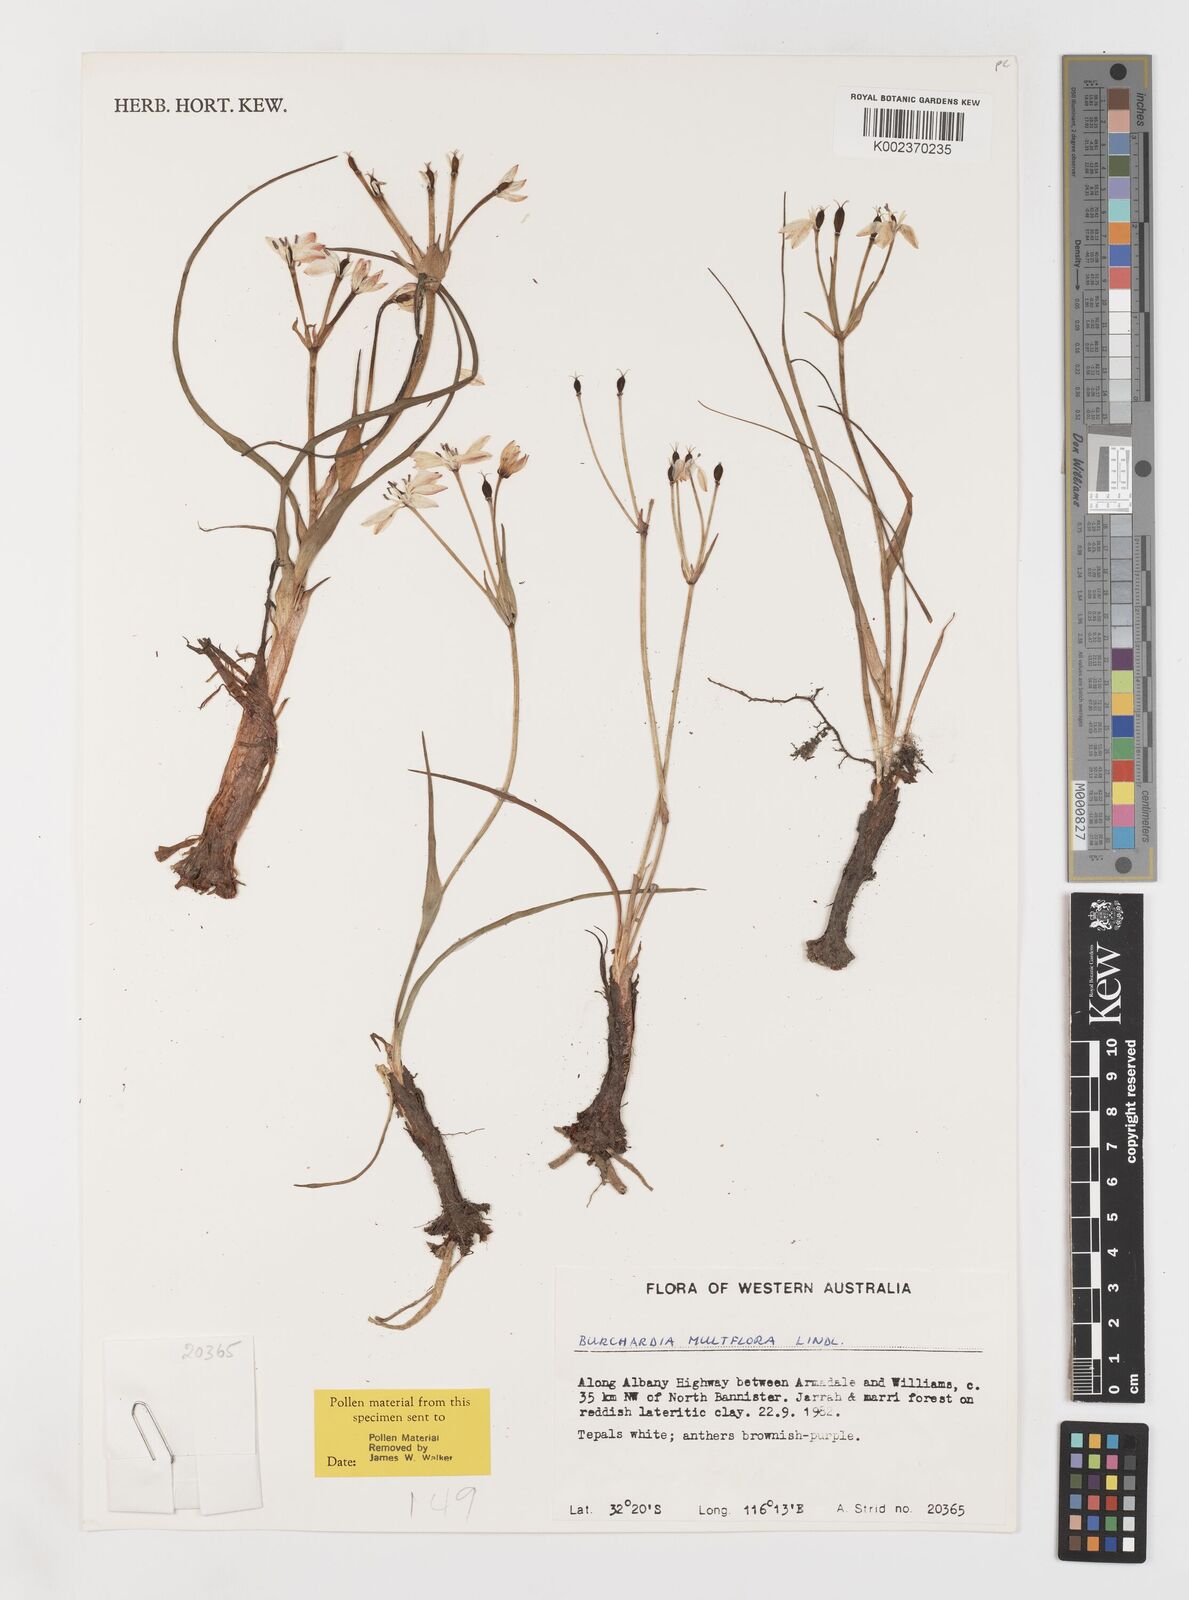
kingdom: Plantae
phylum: Tracheophyta
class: Liliopsida
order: Liliales
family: Colchicaceae
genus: Burchardia
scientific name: Burchardia multiflora
